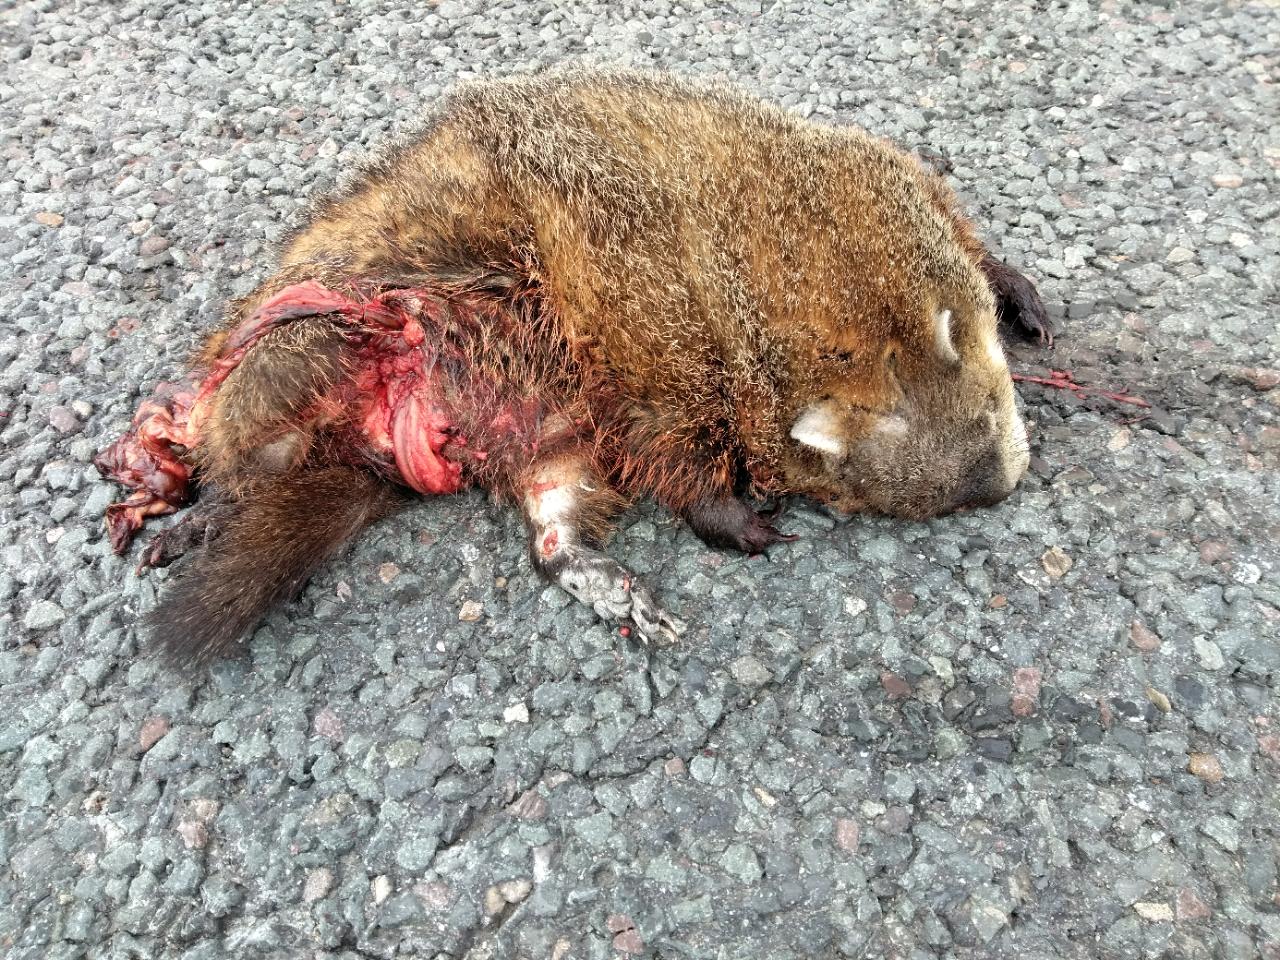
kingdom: Animalia
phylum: Chordata
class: Mammalia
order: Rodentia
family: Sciuridae
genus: Marmota
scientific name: Marmota monax
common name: Groundhog
